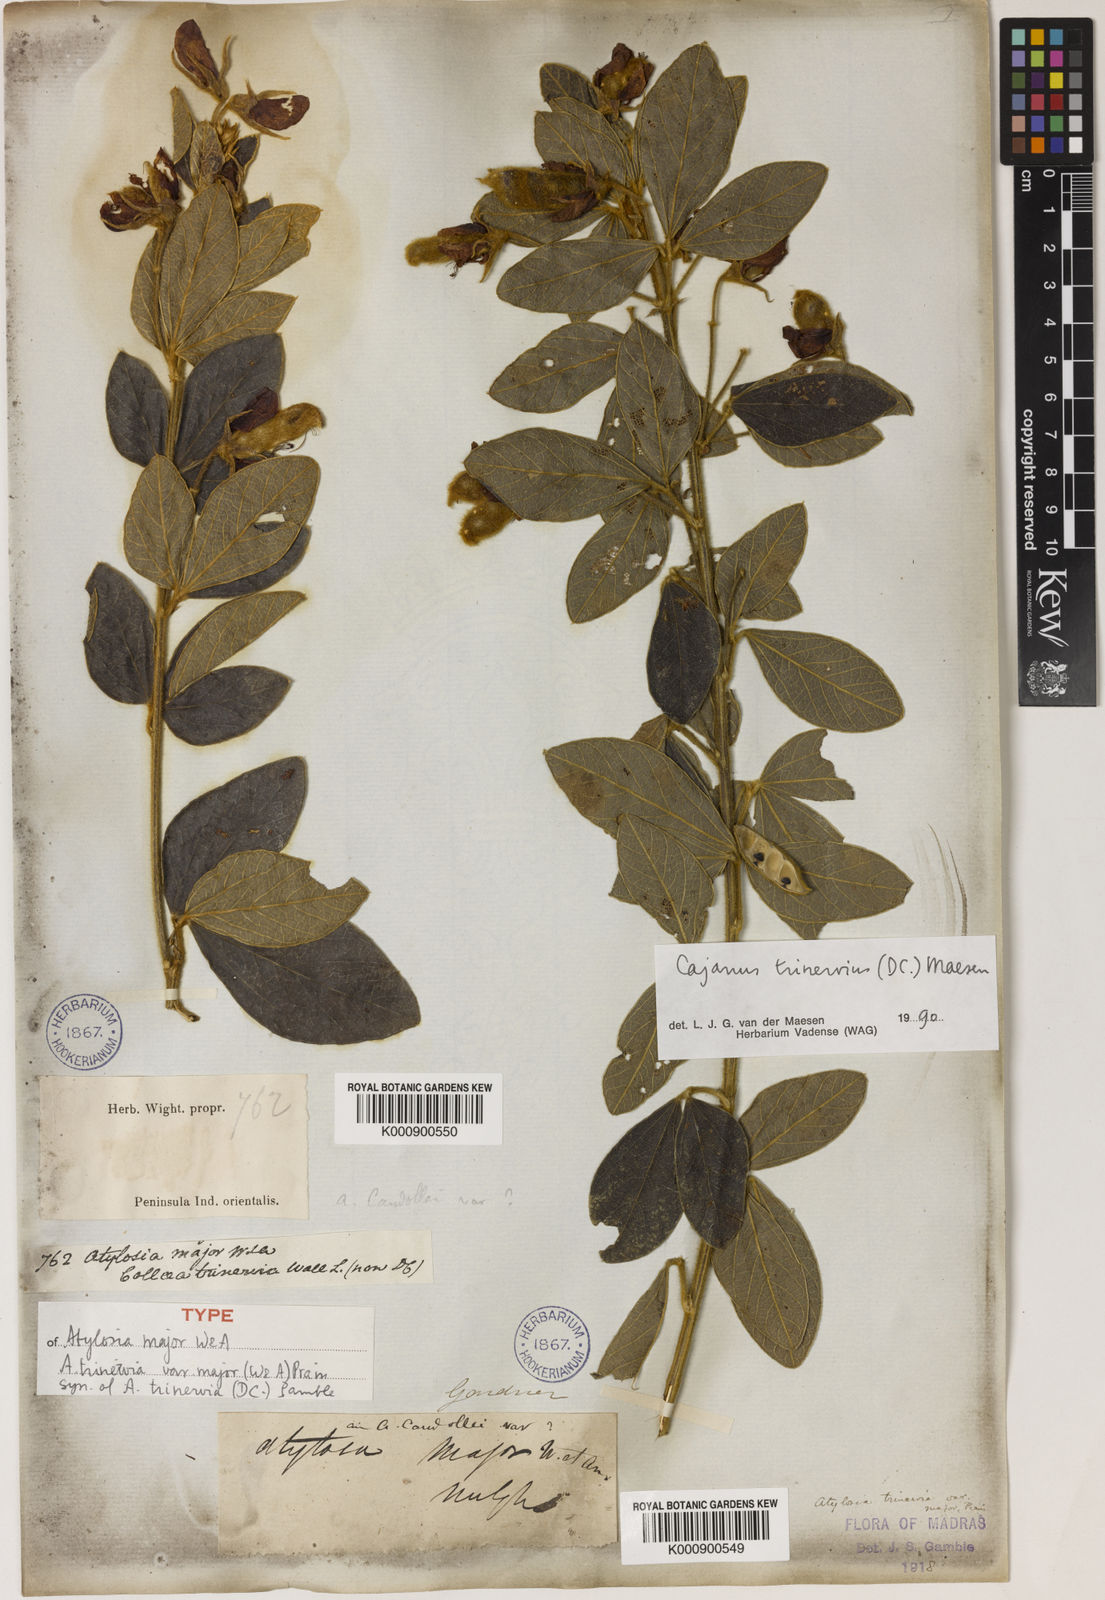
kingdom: Plantae
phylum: Tracheophyta
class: Magnoliopsida
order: Fabales
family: Fabaceae
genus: Cajanus
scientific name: Cajanus
